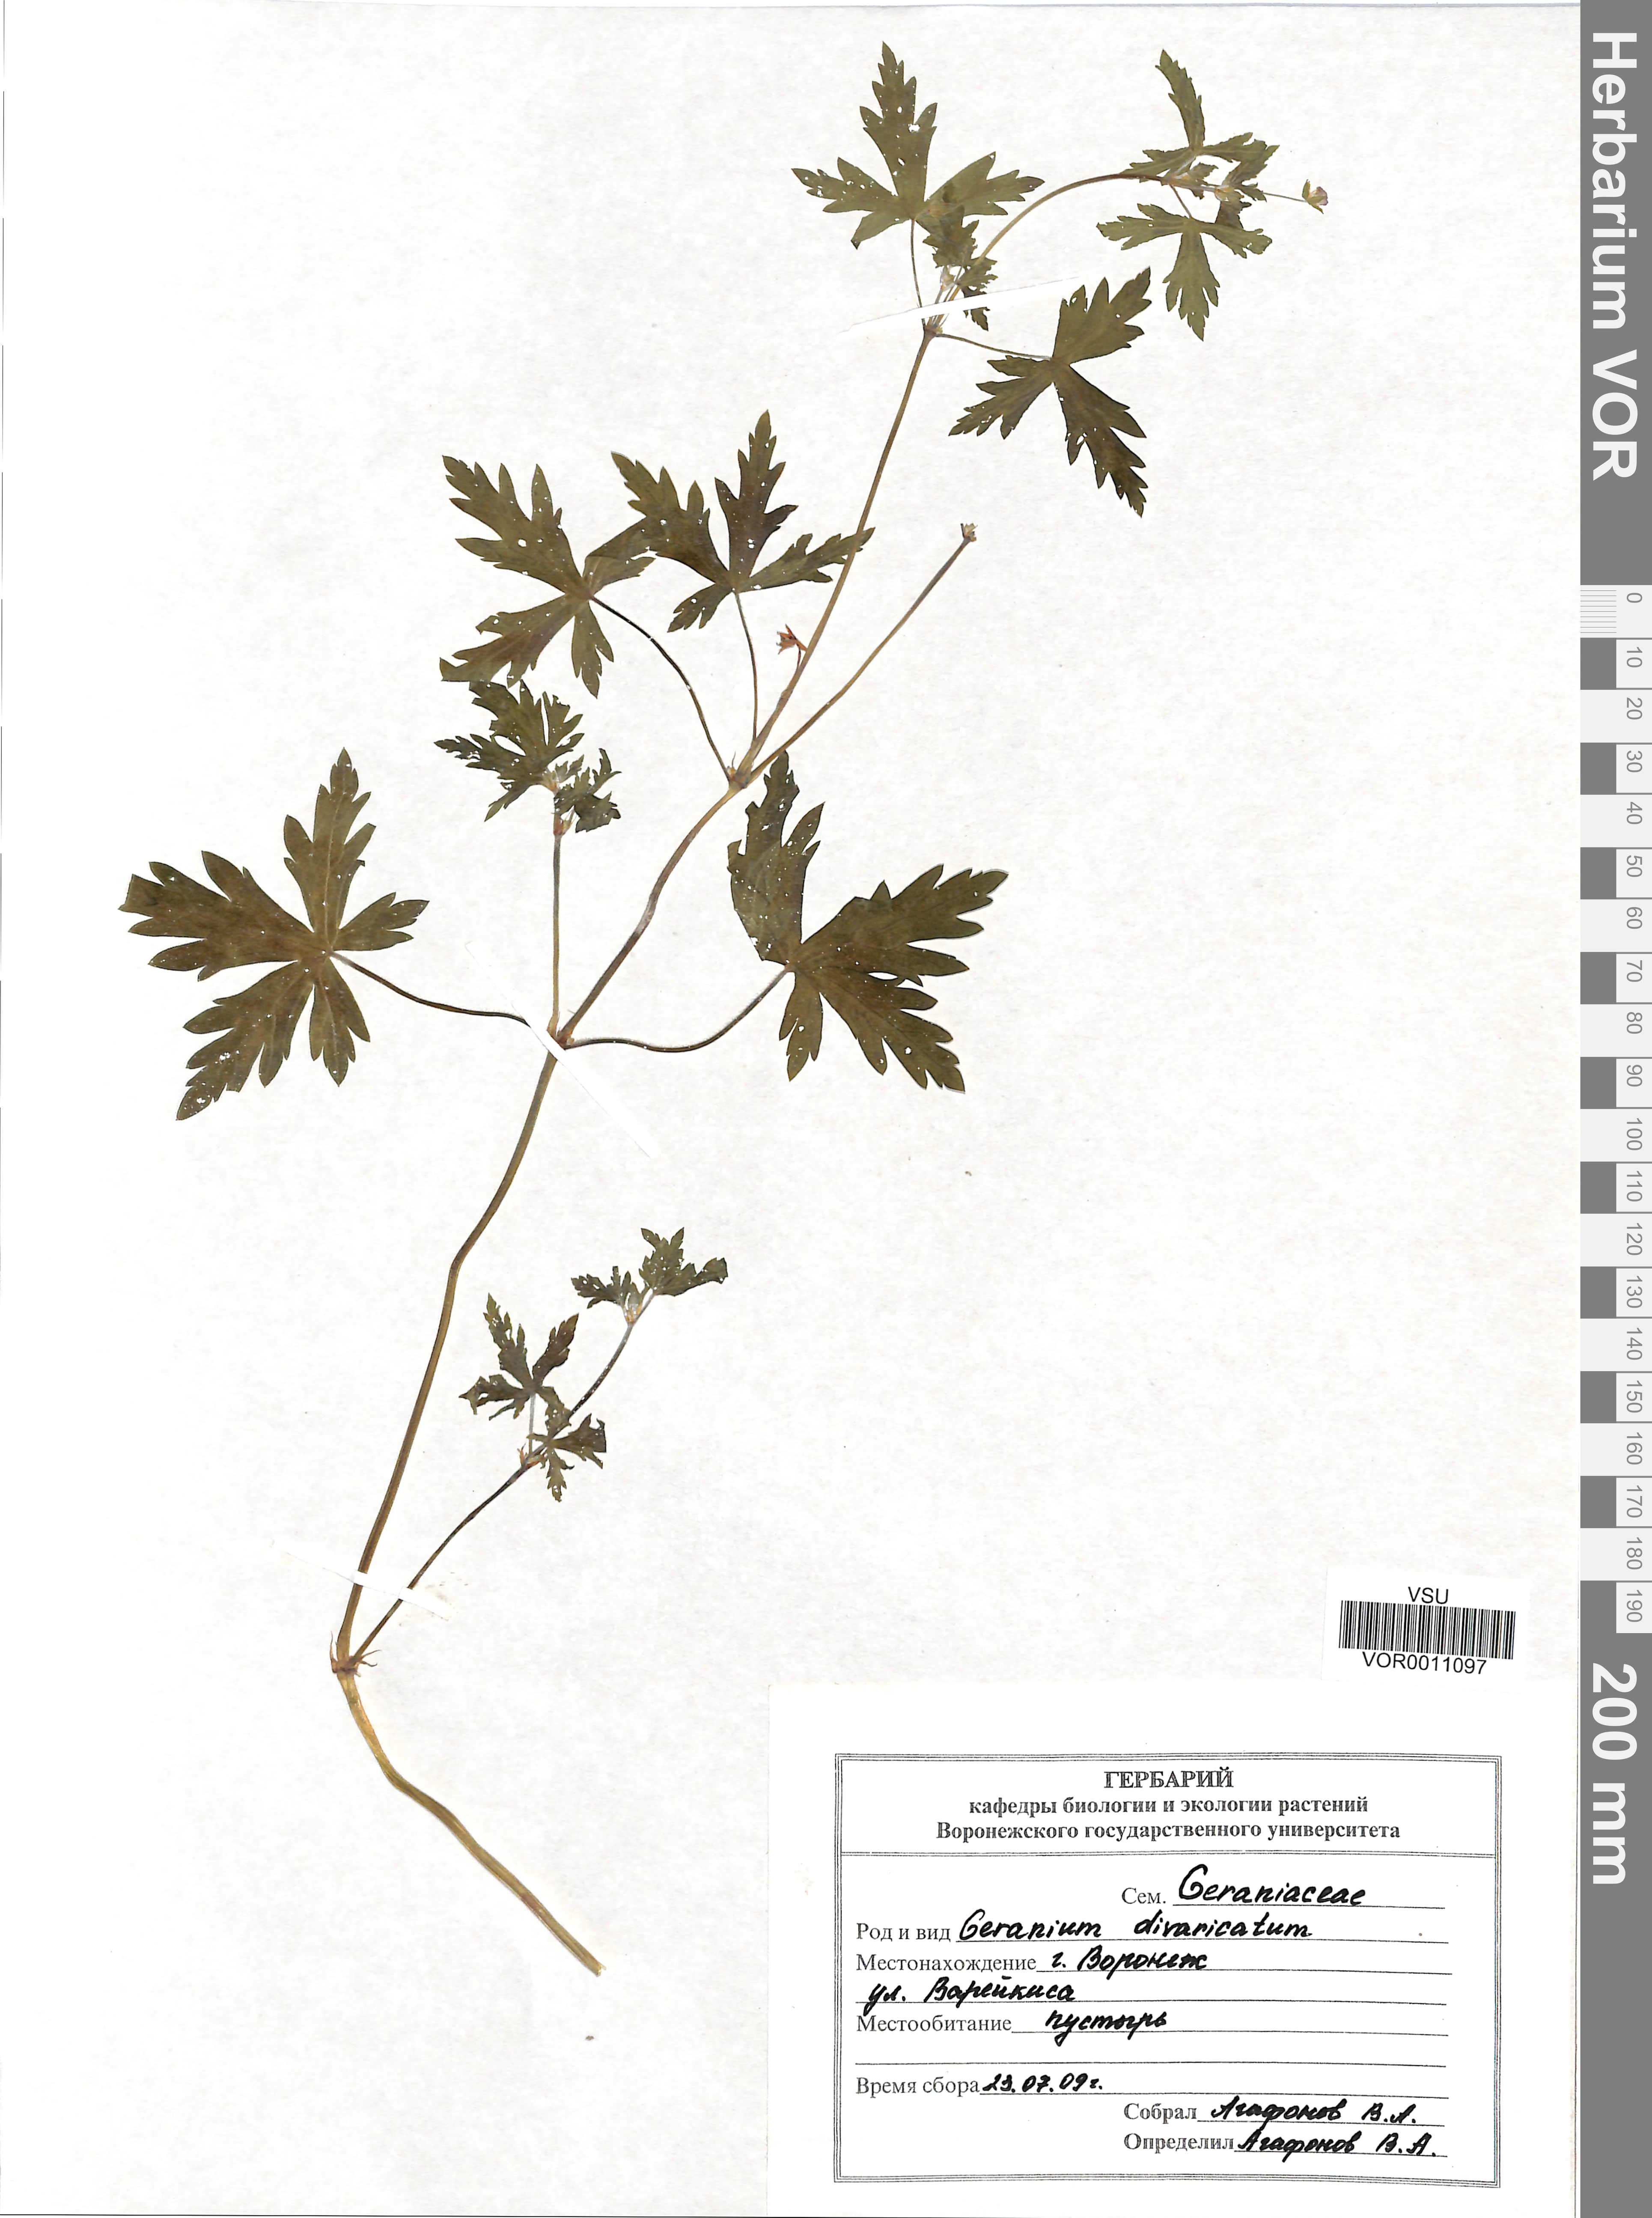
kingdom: Plantae
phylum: Tracheophyta
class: Magnoliopsida
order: Geraniales
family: Geraniaceae
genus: Geranium
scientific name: Geranium divaricatum
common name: Spreading crane's-bill
